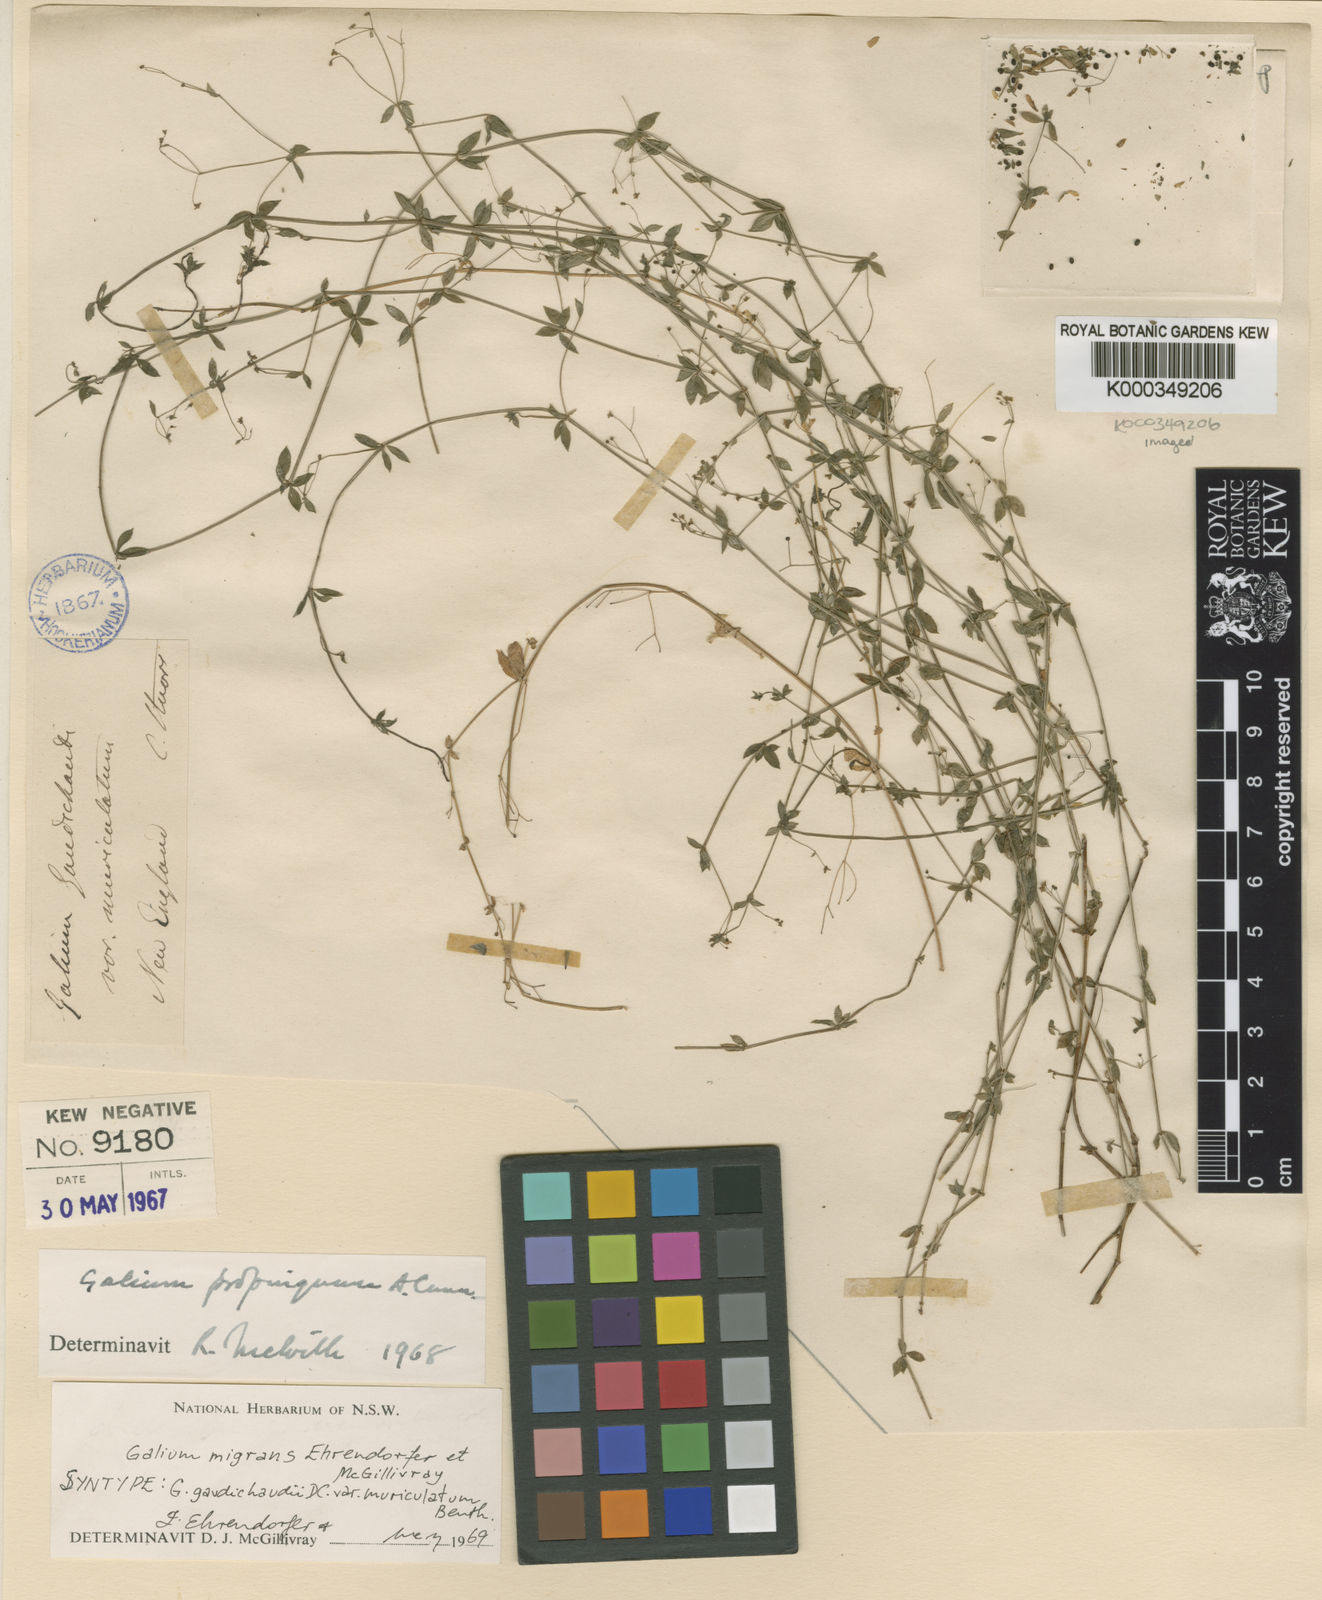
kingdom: Plantae
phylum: Tracheophyta
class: Magnoliopsida
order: Gentianales
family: Rubiaceae
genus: Galium
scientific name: Galium migrans
